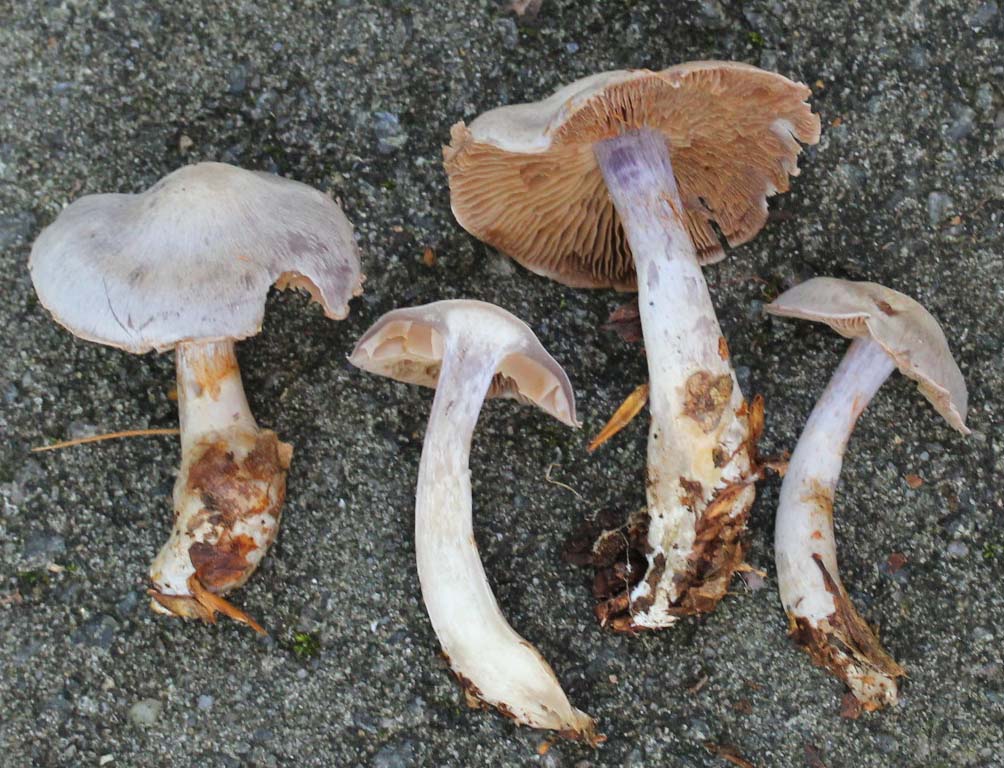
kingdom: Fungi
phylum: Basidiomycota
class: Agaricomycetes
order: Agaricales
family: Cortinariaceae
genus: Cortinarius
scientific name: Cortinarius alboviolaceus
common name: lysviolet slørhat
